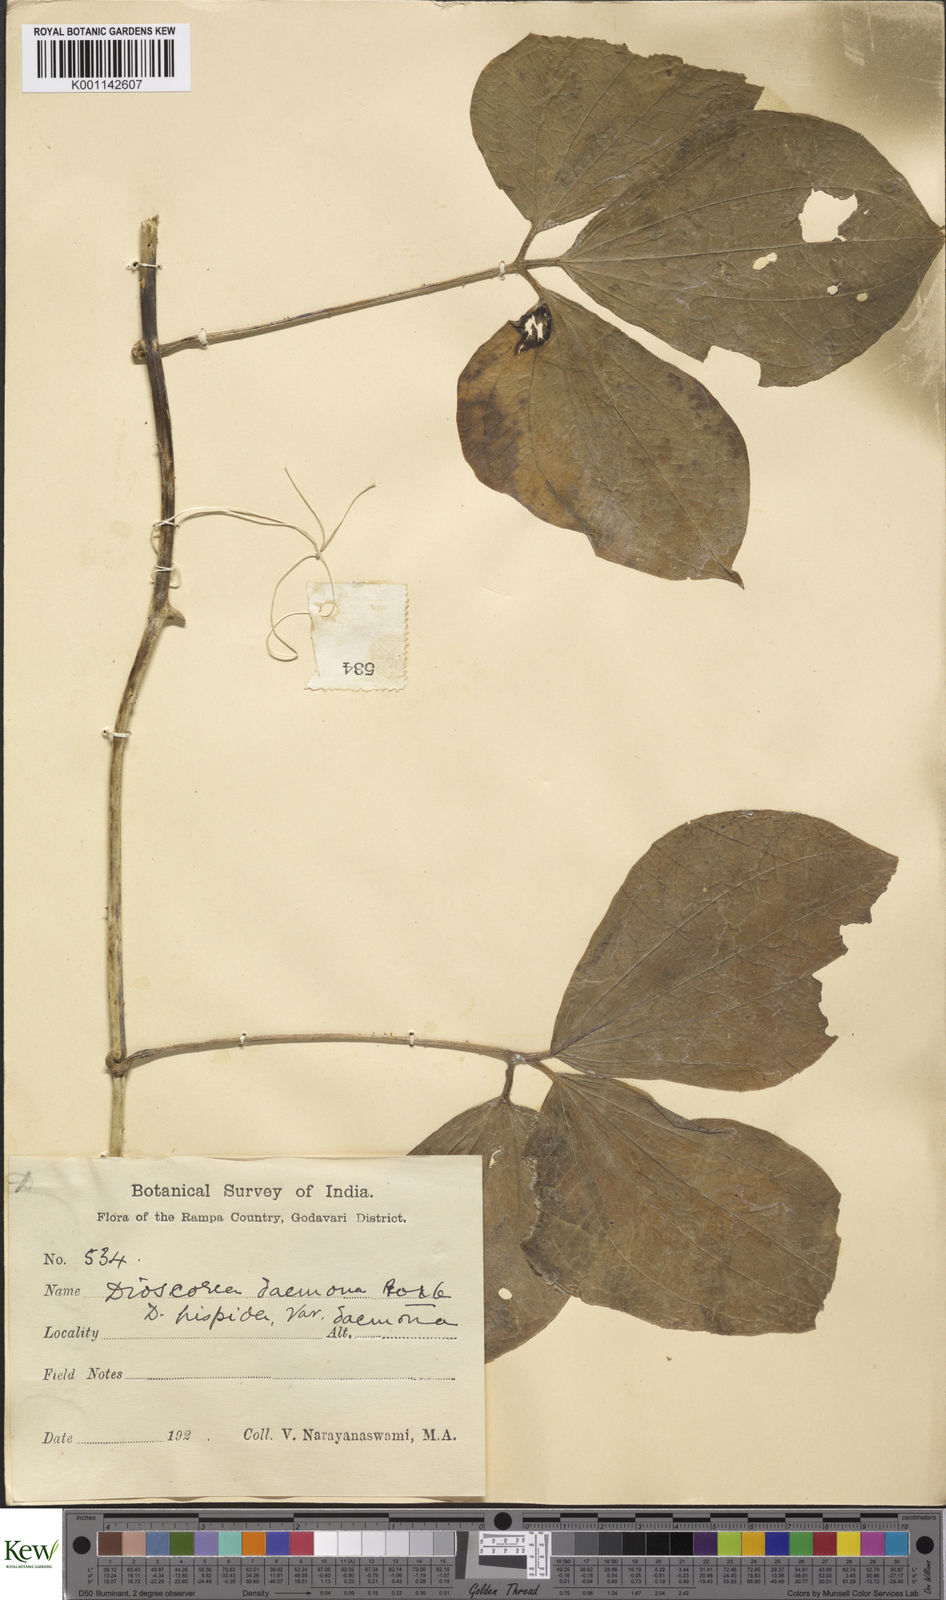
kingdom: Plantae
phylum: Tracheophyta
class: Liliopsida
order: Dioscoreales
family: Dioscoreaceae
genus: Dioscorea
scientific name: Dioscorea hispida
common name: Asiatic bitter yam
